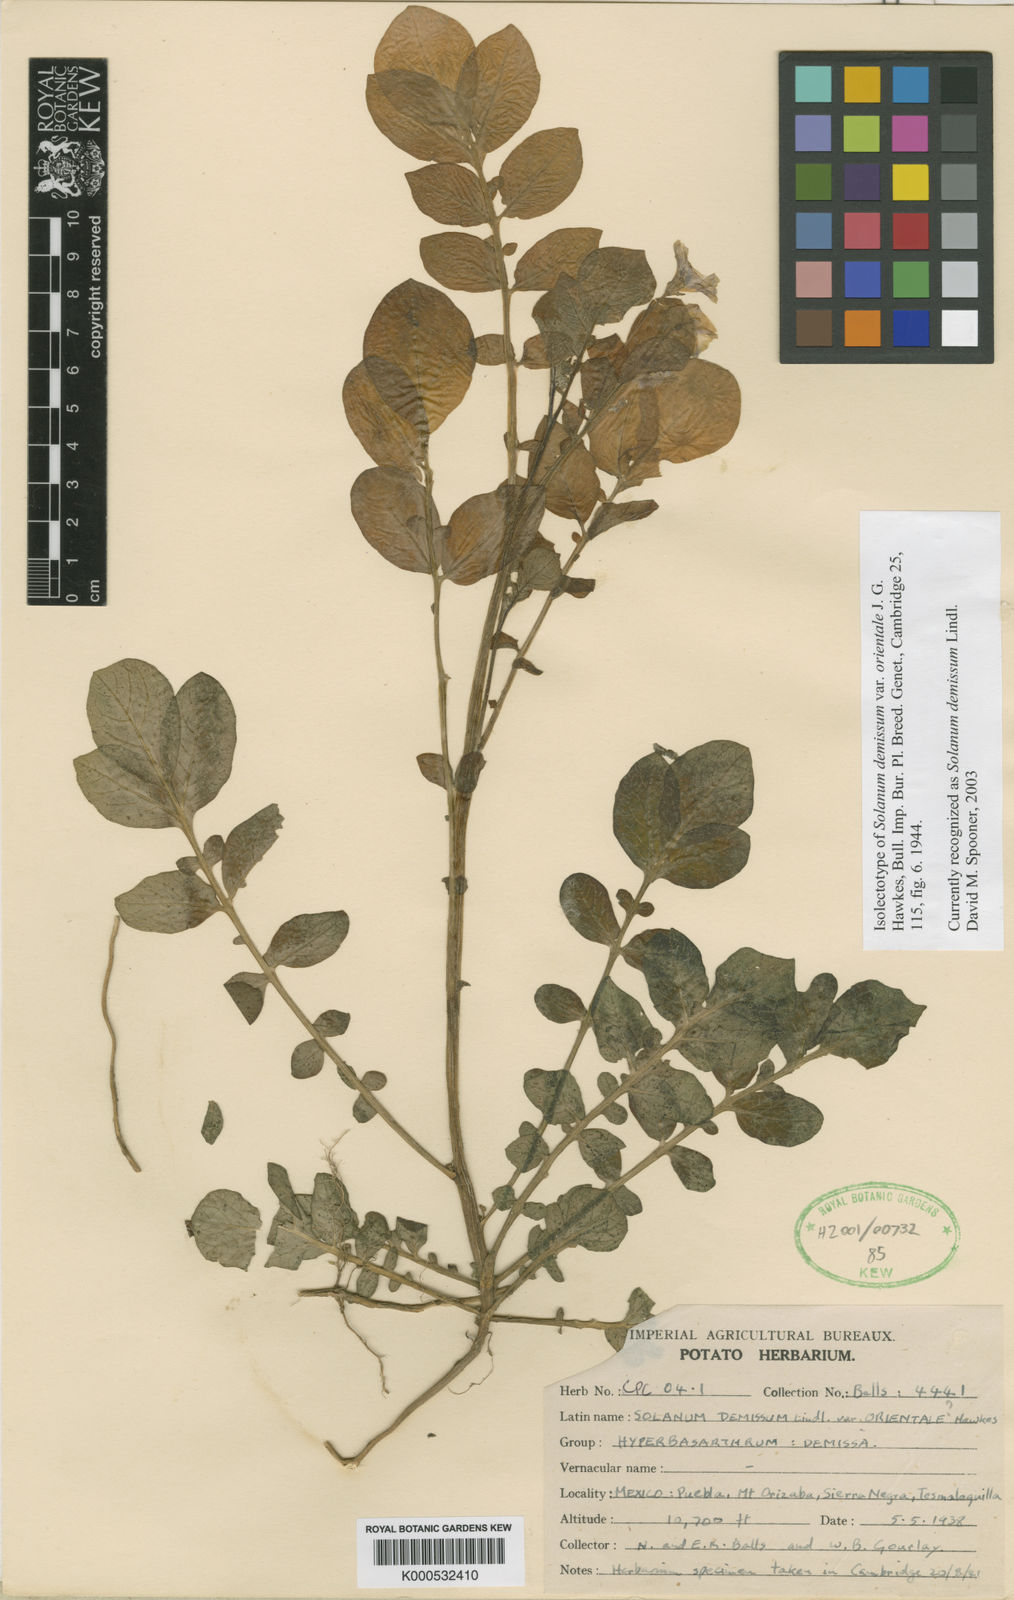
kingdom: Plantae
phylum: Tracheophyta
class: Magnoliopsida
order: Solanales
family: Solanaceae
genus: Solanum
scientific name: Solanum demissum
